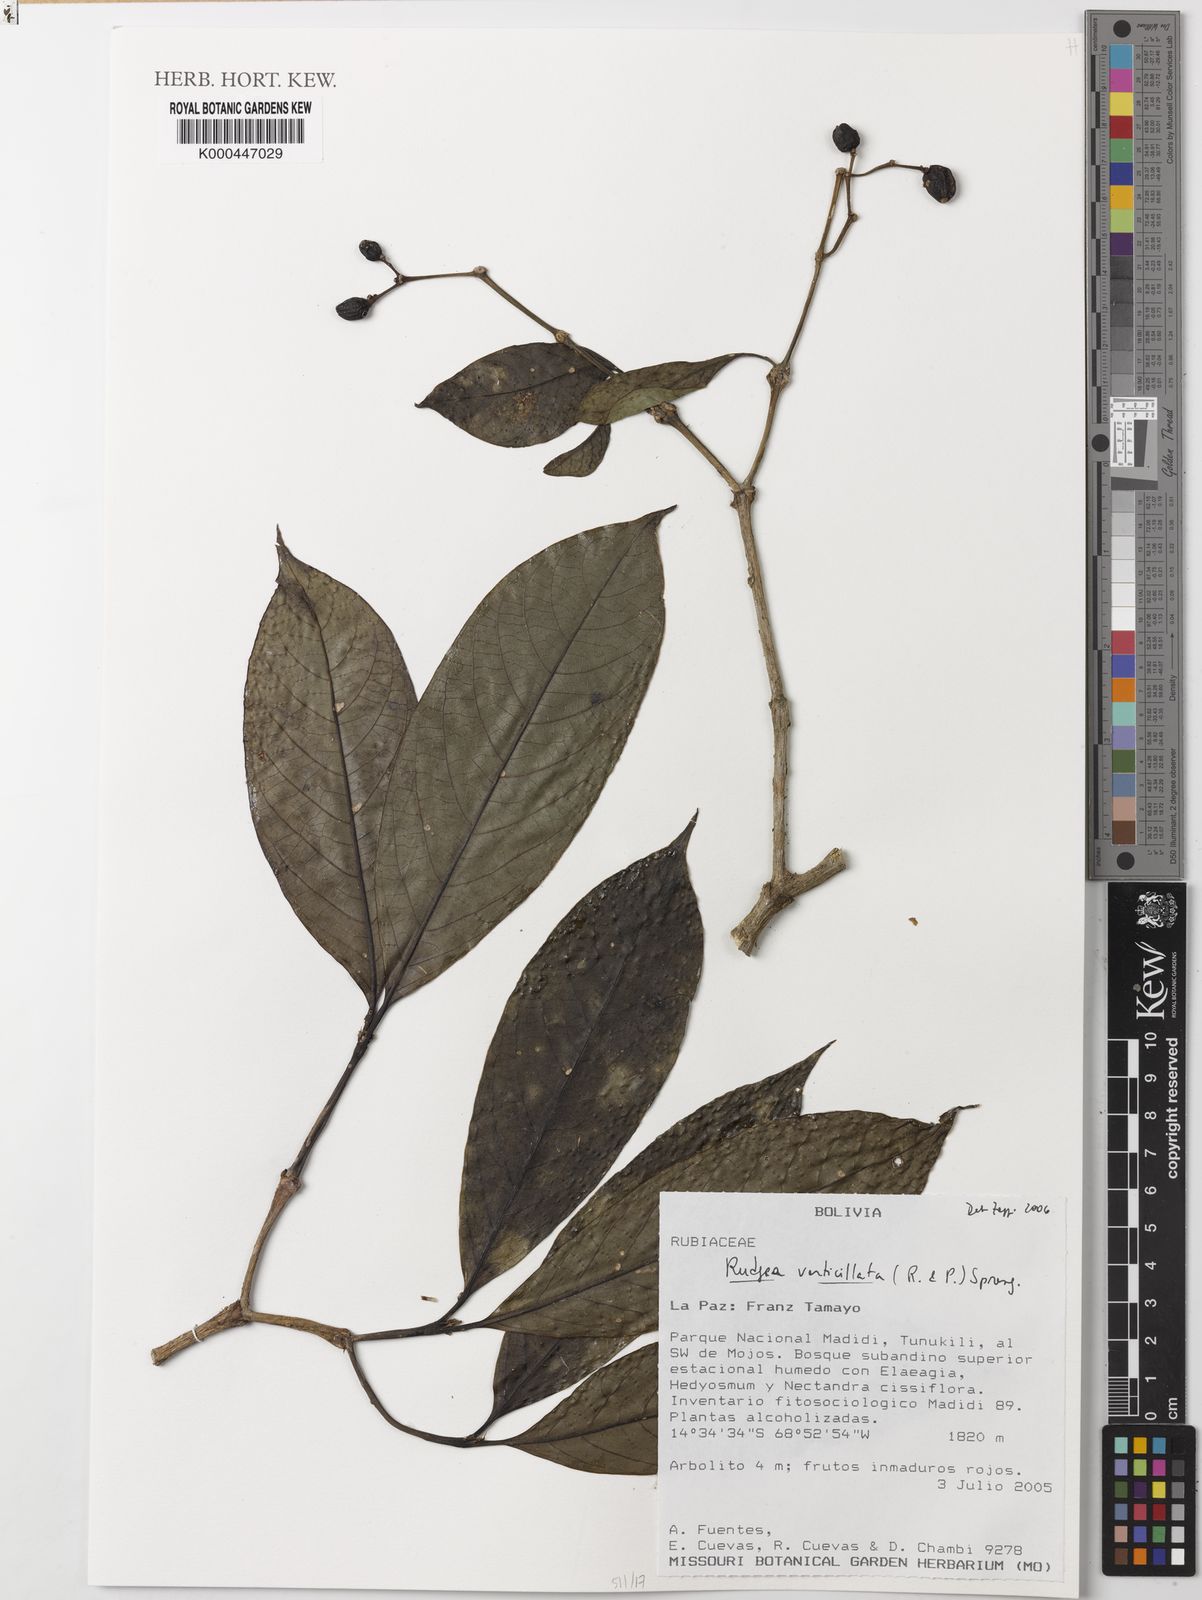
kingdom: Plantae
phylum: Tracheophyta
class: Magnoliopsida
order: Gentianales
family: Rubiaceae
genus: Rudgea
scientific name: Rudgea verticillata
